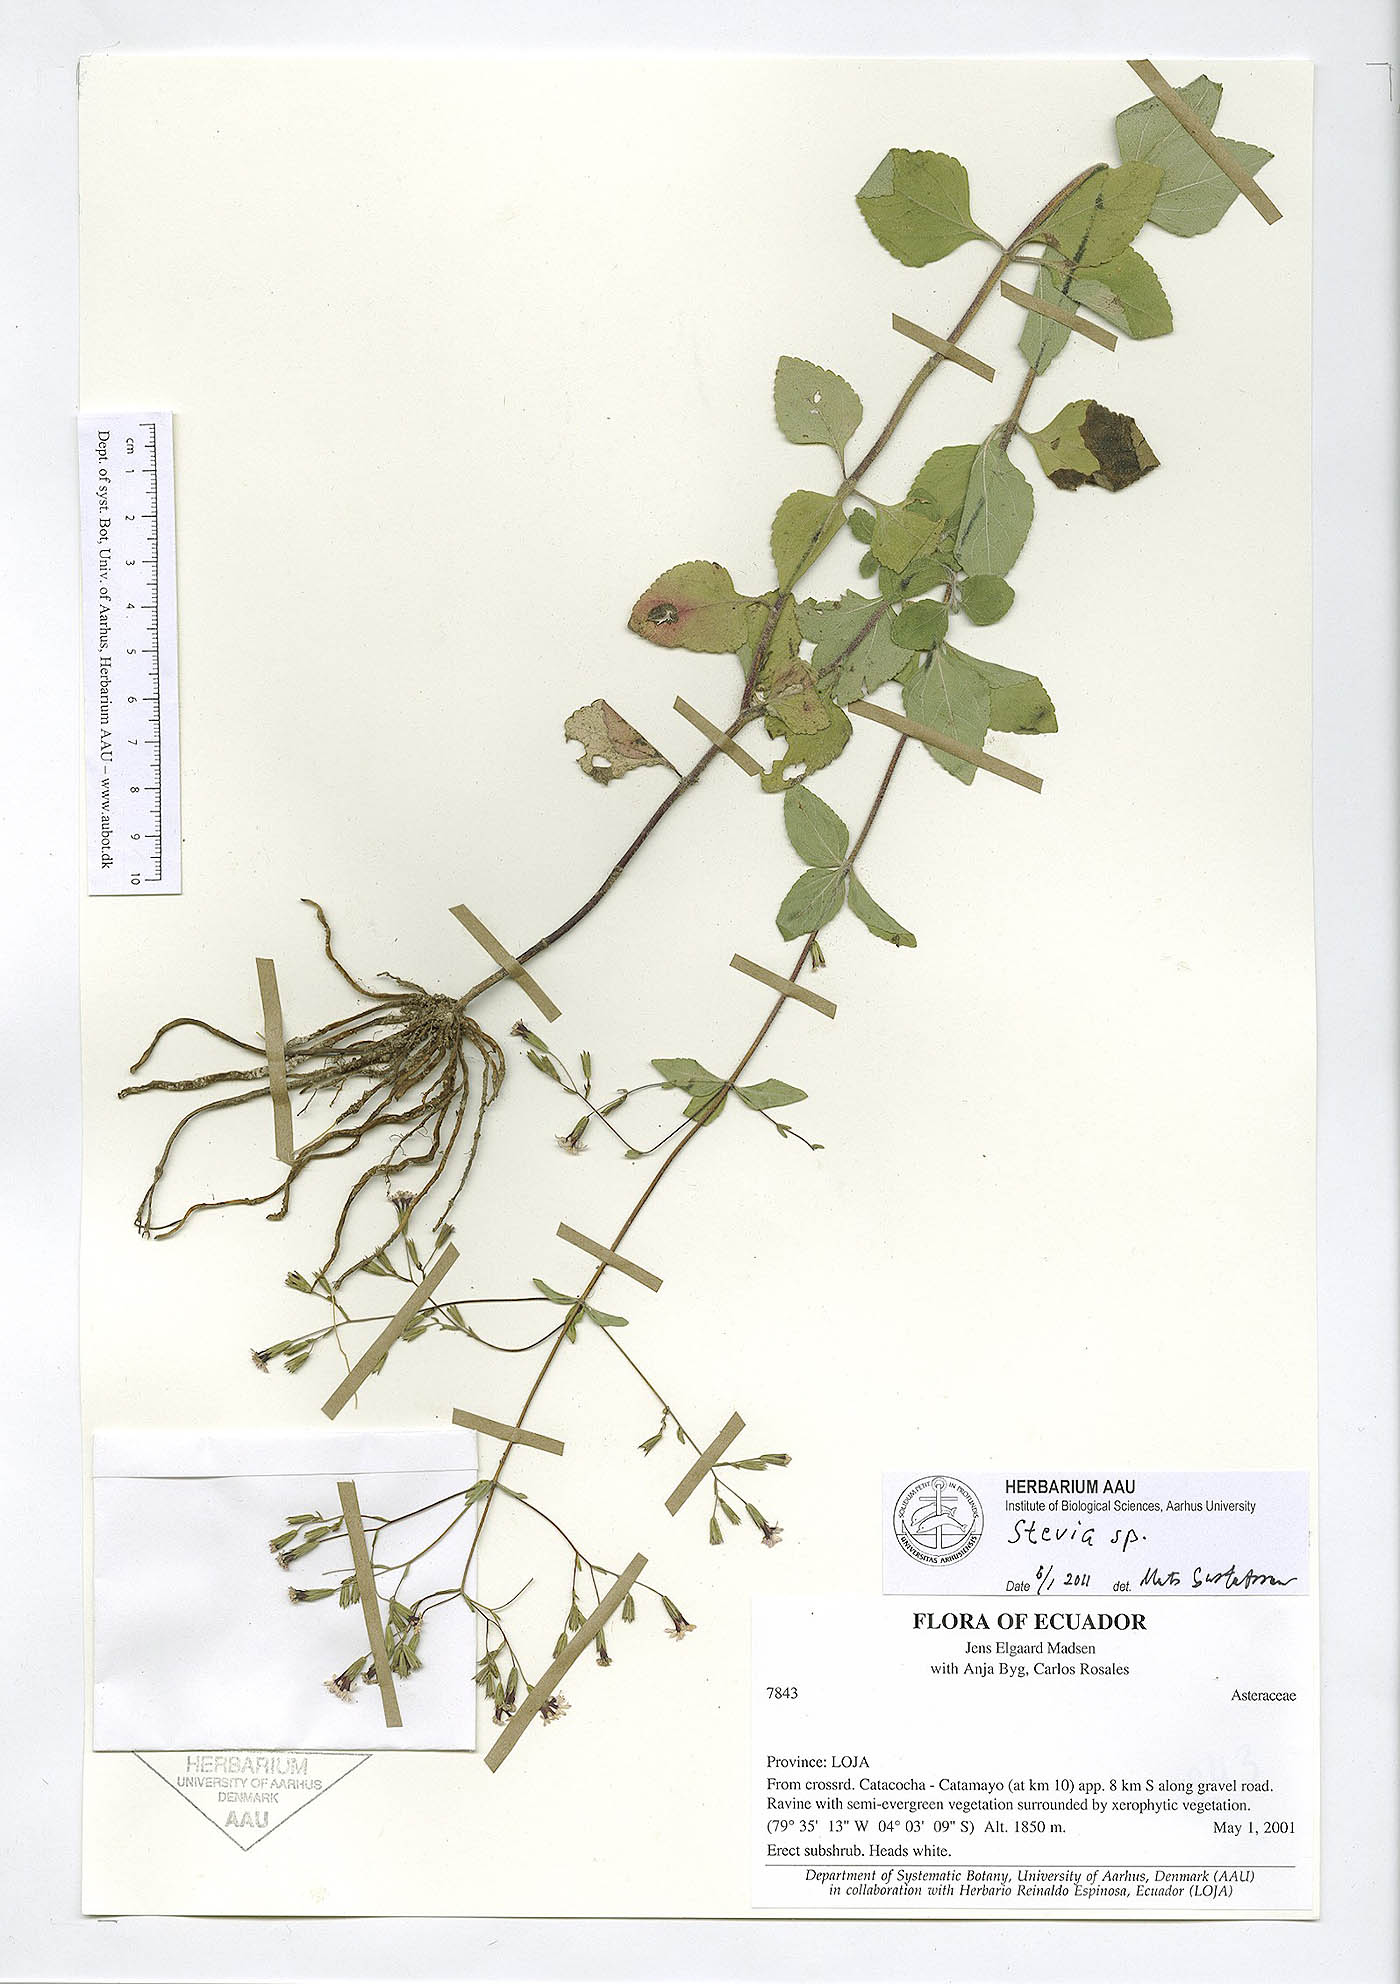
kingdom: Plantae
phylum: Tracheophyta
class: Magnoliopsida
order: Asterales
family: Asteraceae
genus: Stevia
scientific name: Stevia
